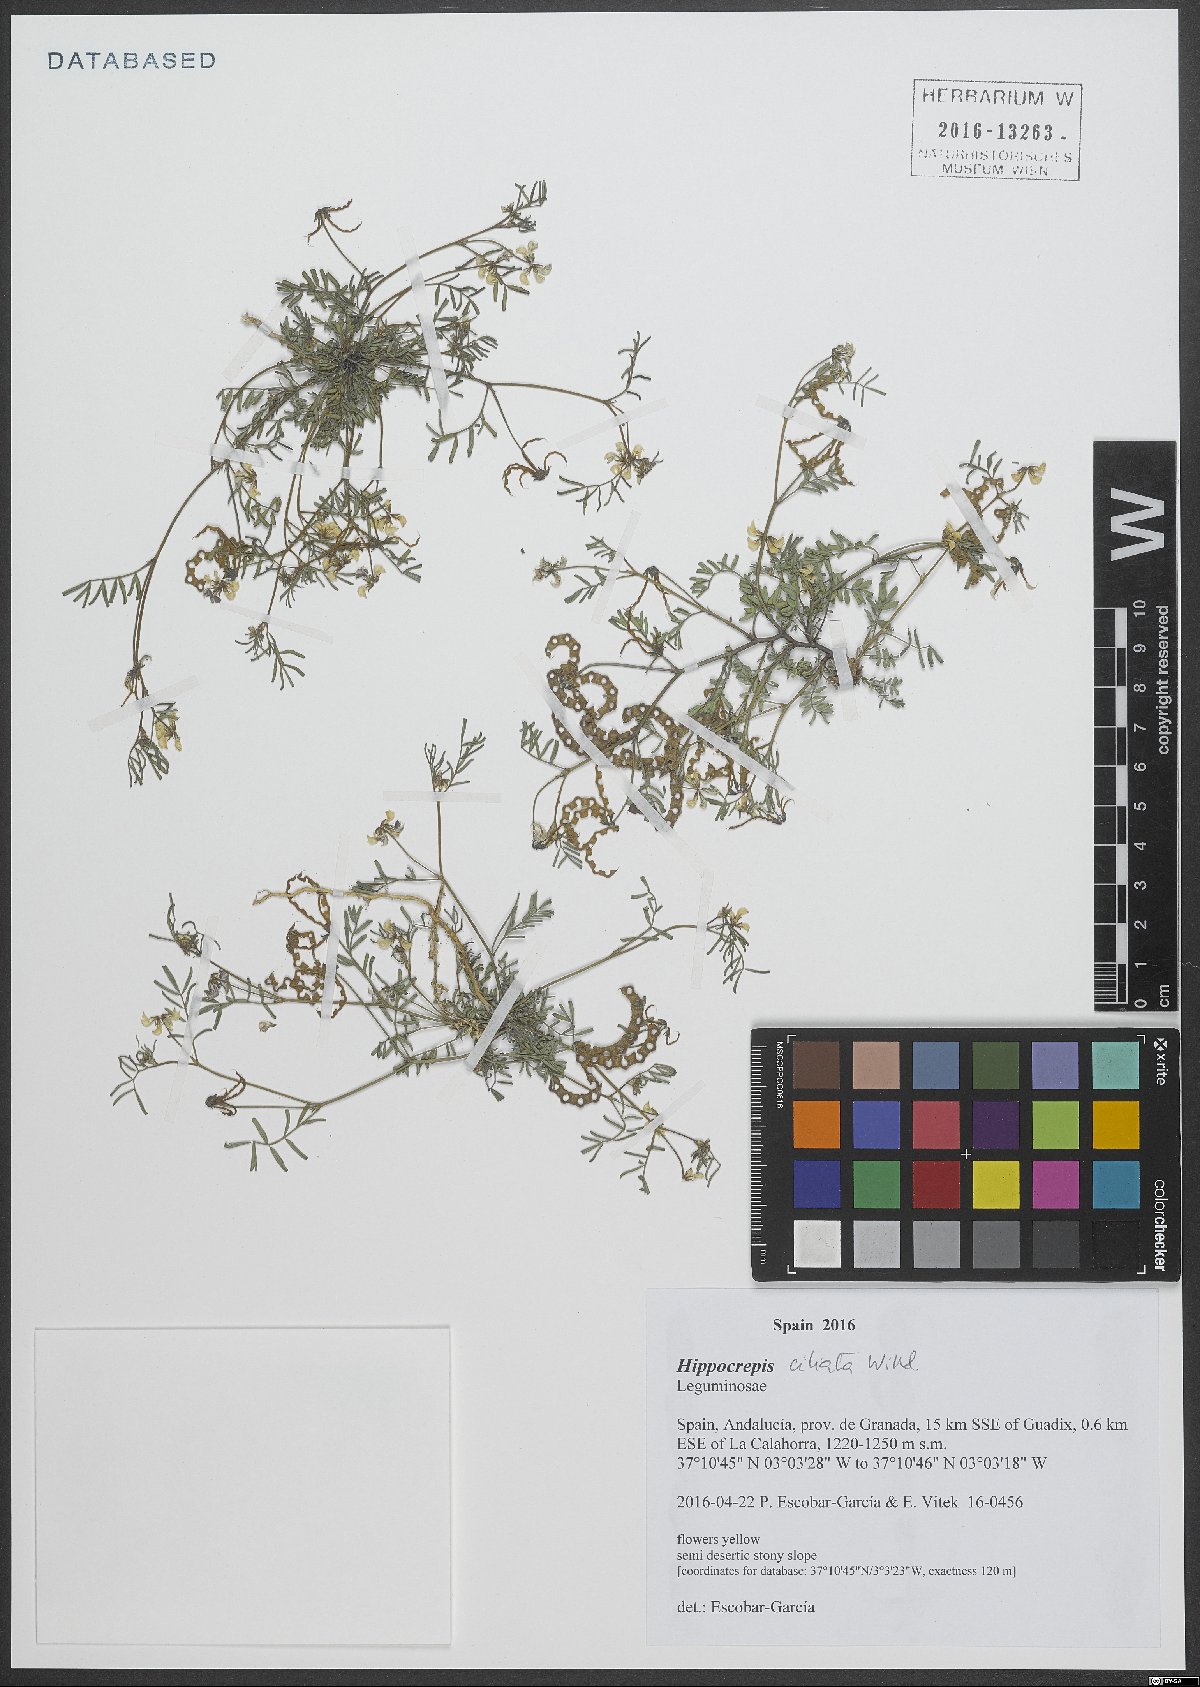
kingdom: Plantae
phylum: Tracheophyta
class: Magnoliopsida
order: Fabales
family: Fabaceae
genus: Hippocrepis
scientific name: Hippocrepis ciliata
